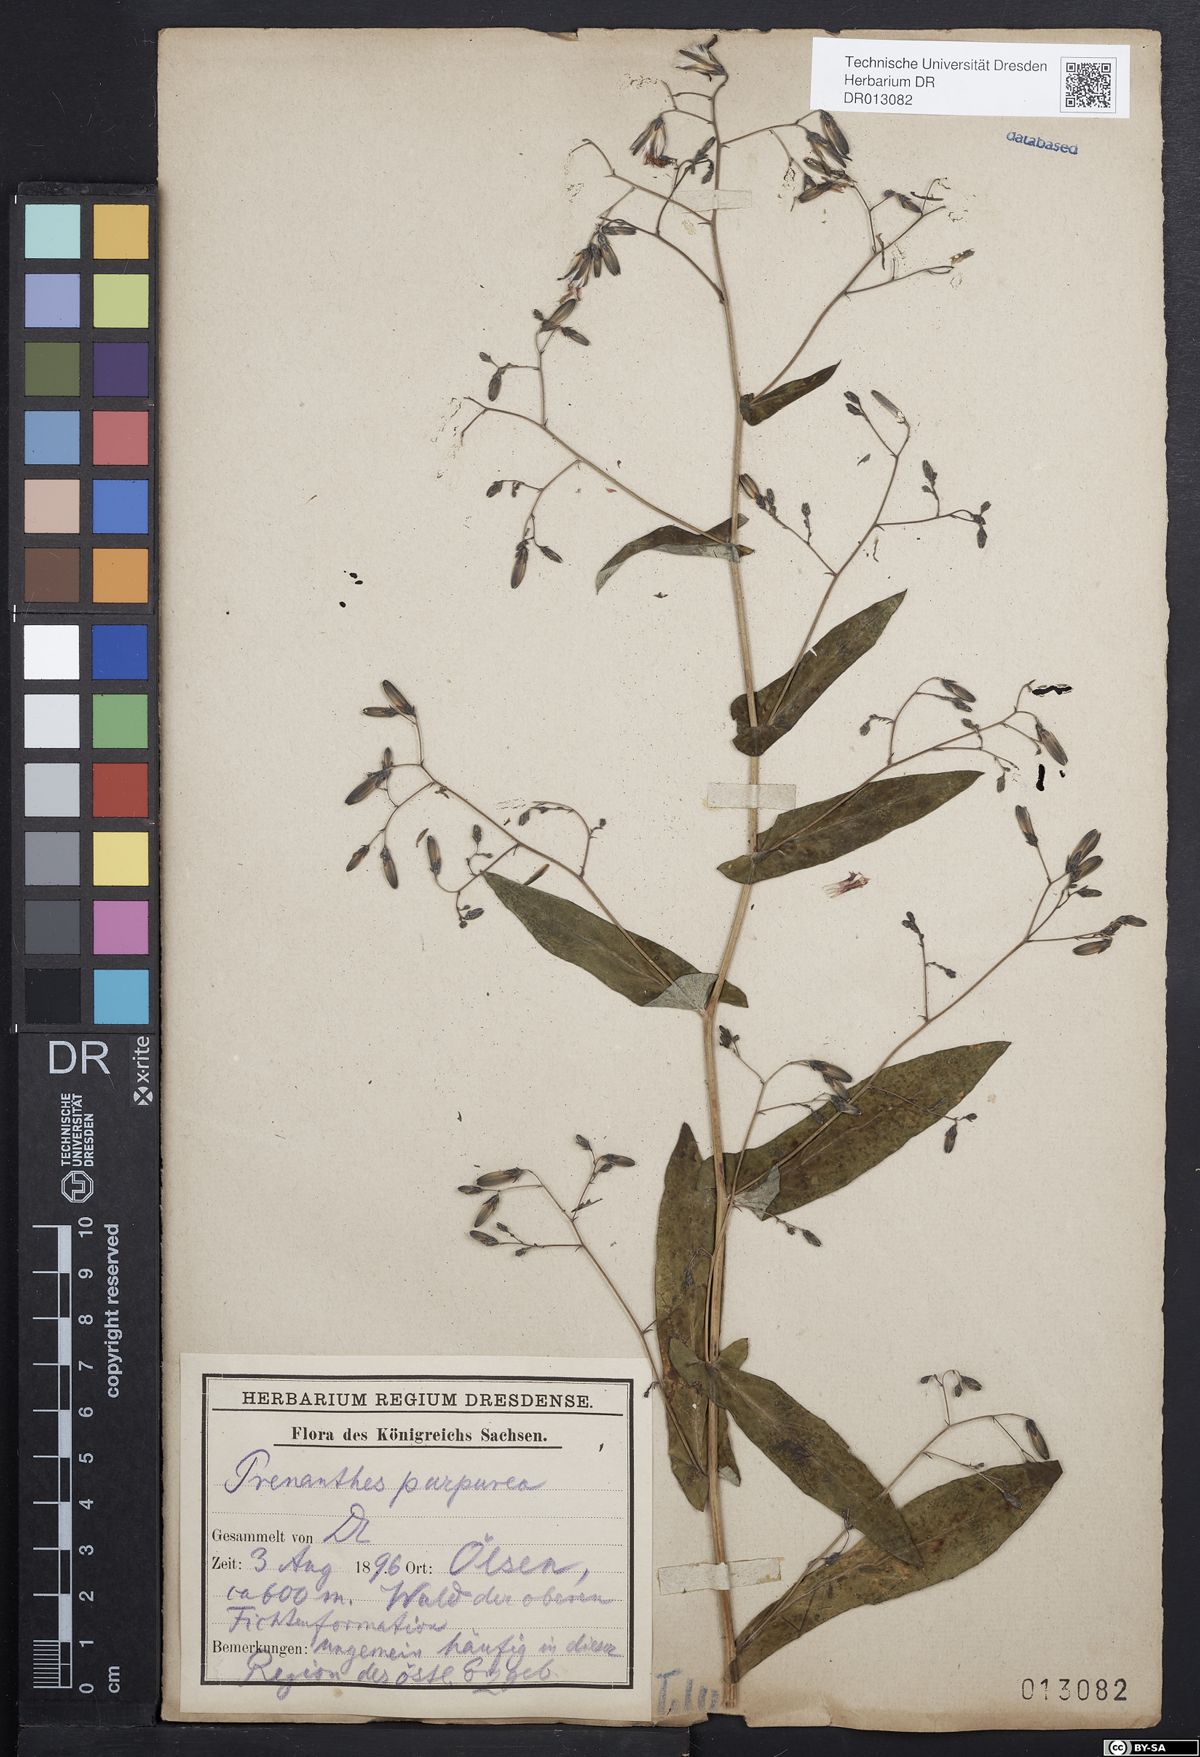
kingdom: Plantae
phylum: Tracheophyta
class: Magnoliopsida
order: Asterales
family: Asteraceae
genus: Prenanthes
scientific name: Prenanthes purpurea
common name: Purple lettuce
